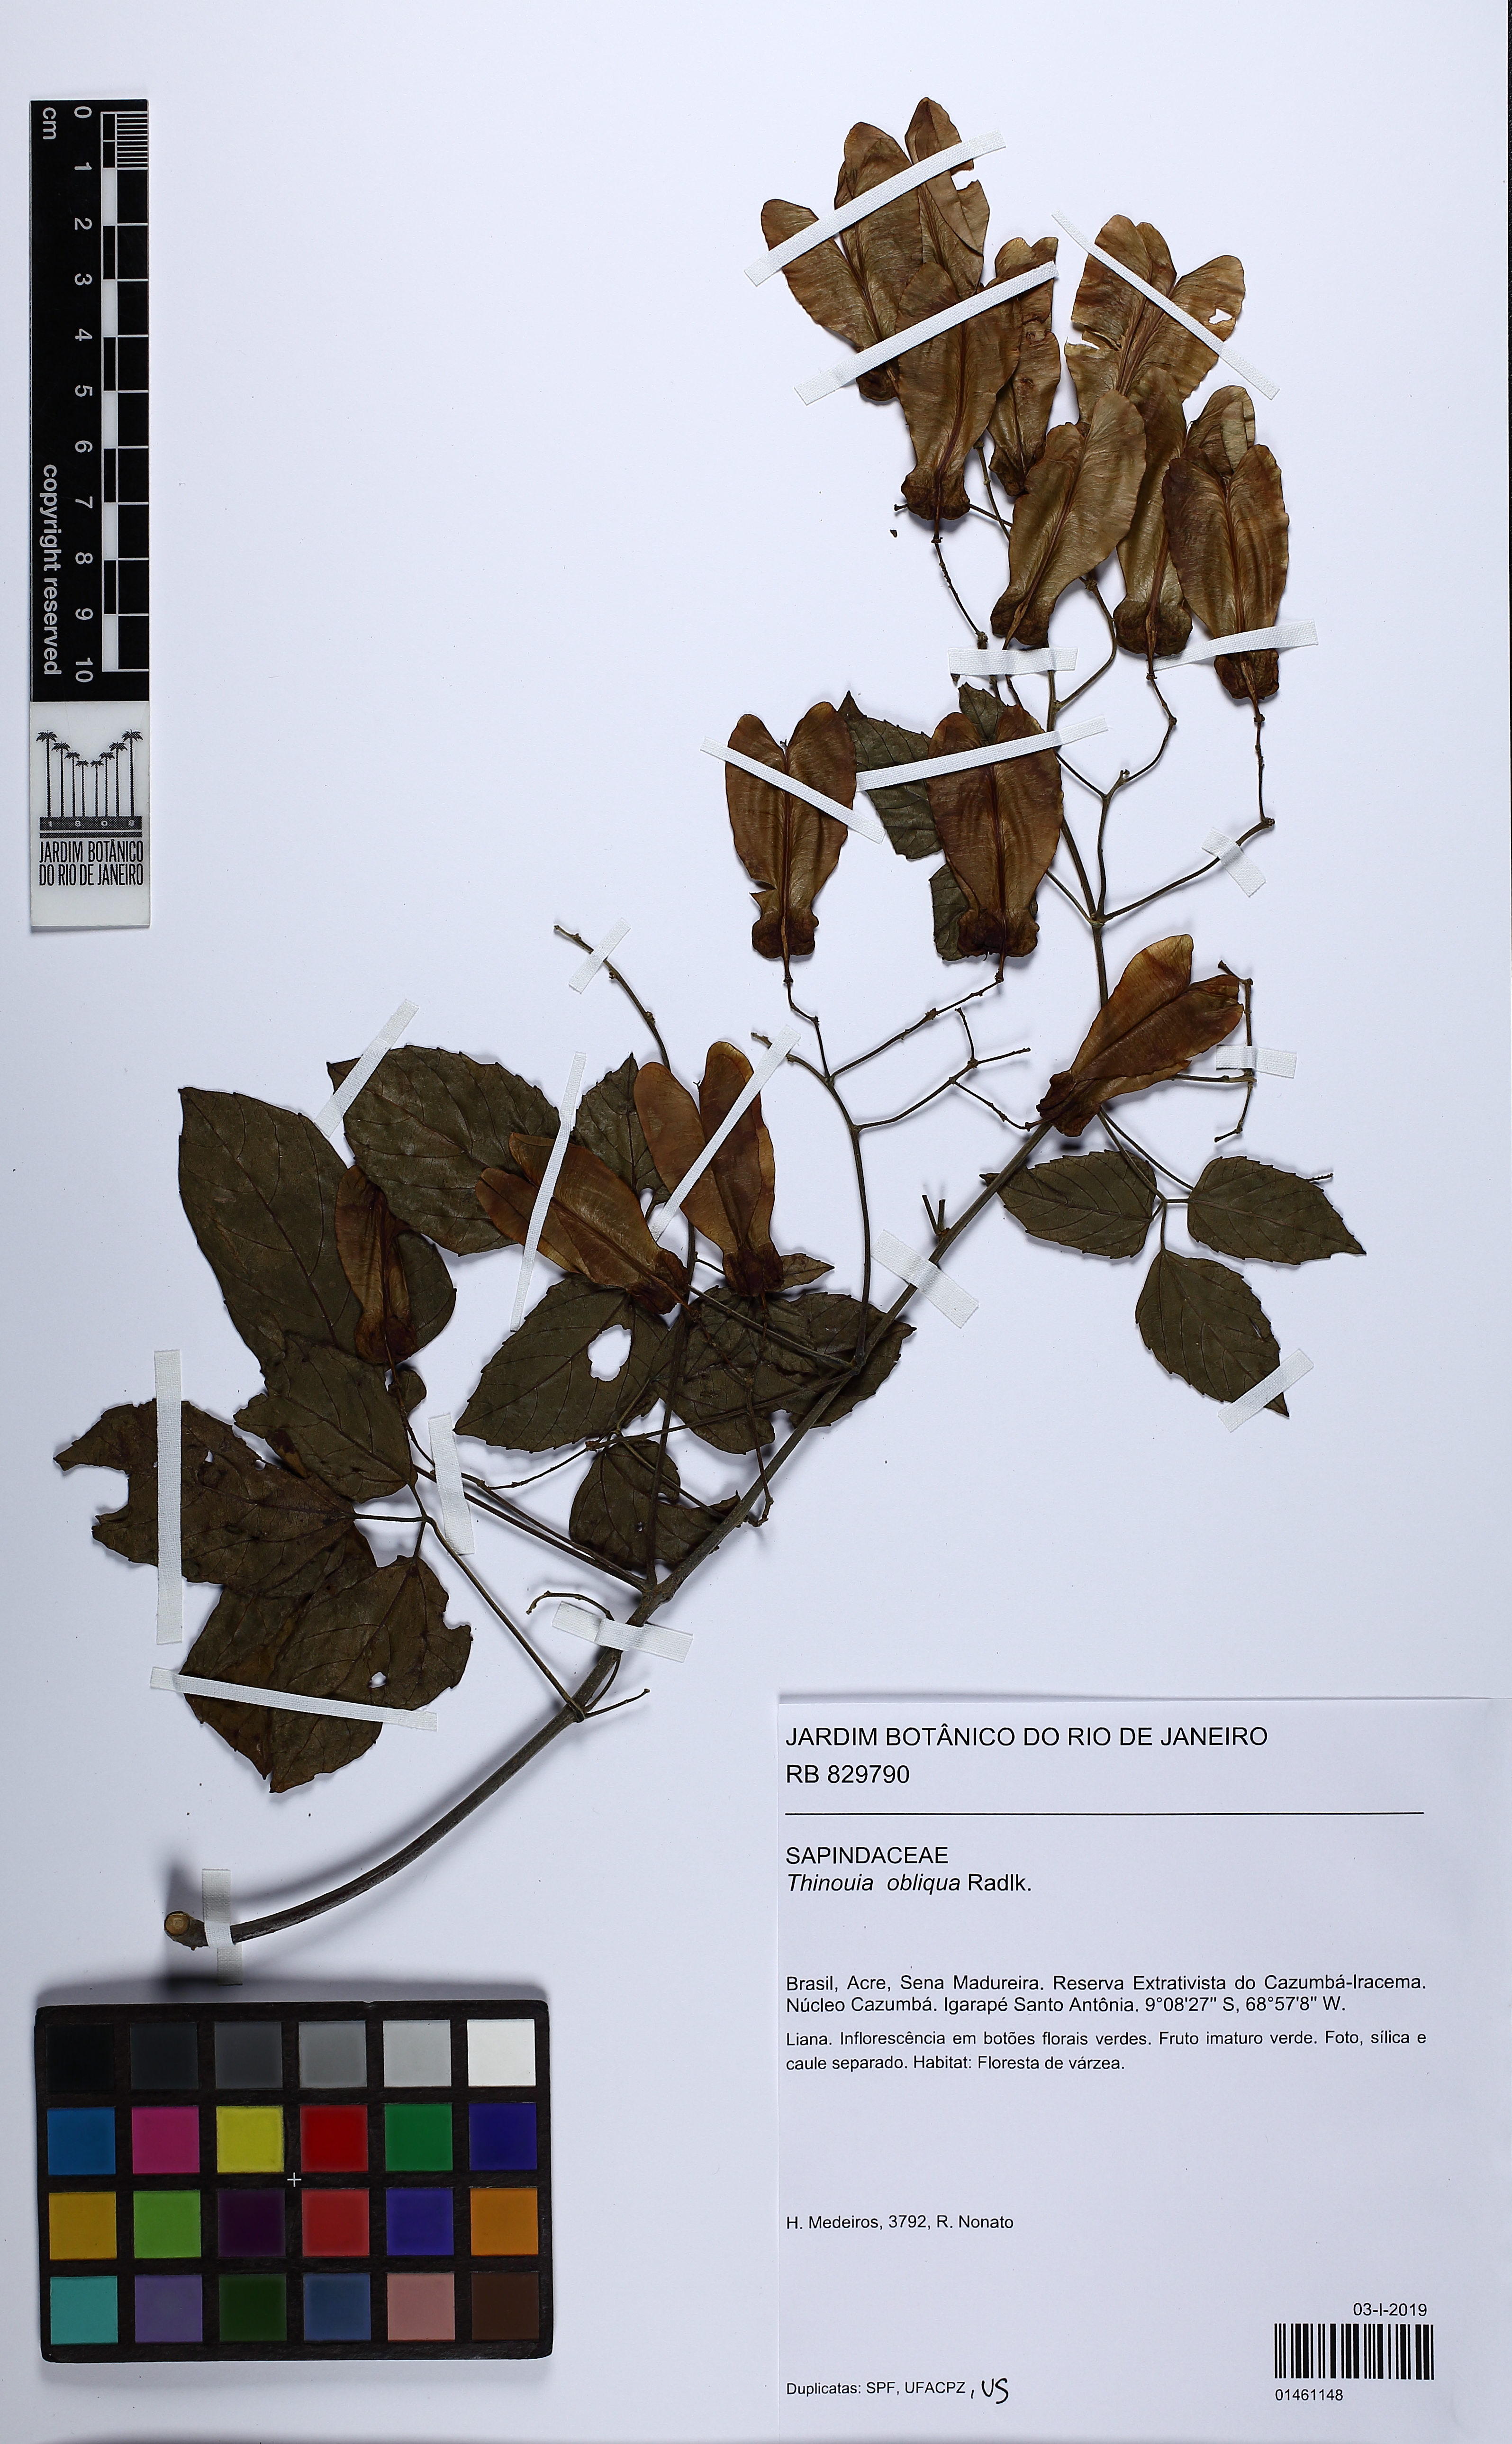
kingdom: Plantae
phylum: Tracheophyta
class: Magnoliopsida
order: Sapindales
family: Sapindaceae
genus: Thinouia
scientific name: Thinouia obliqua
